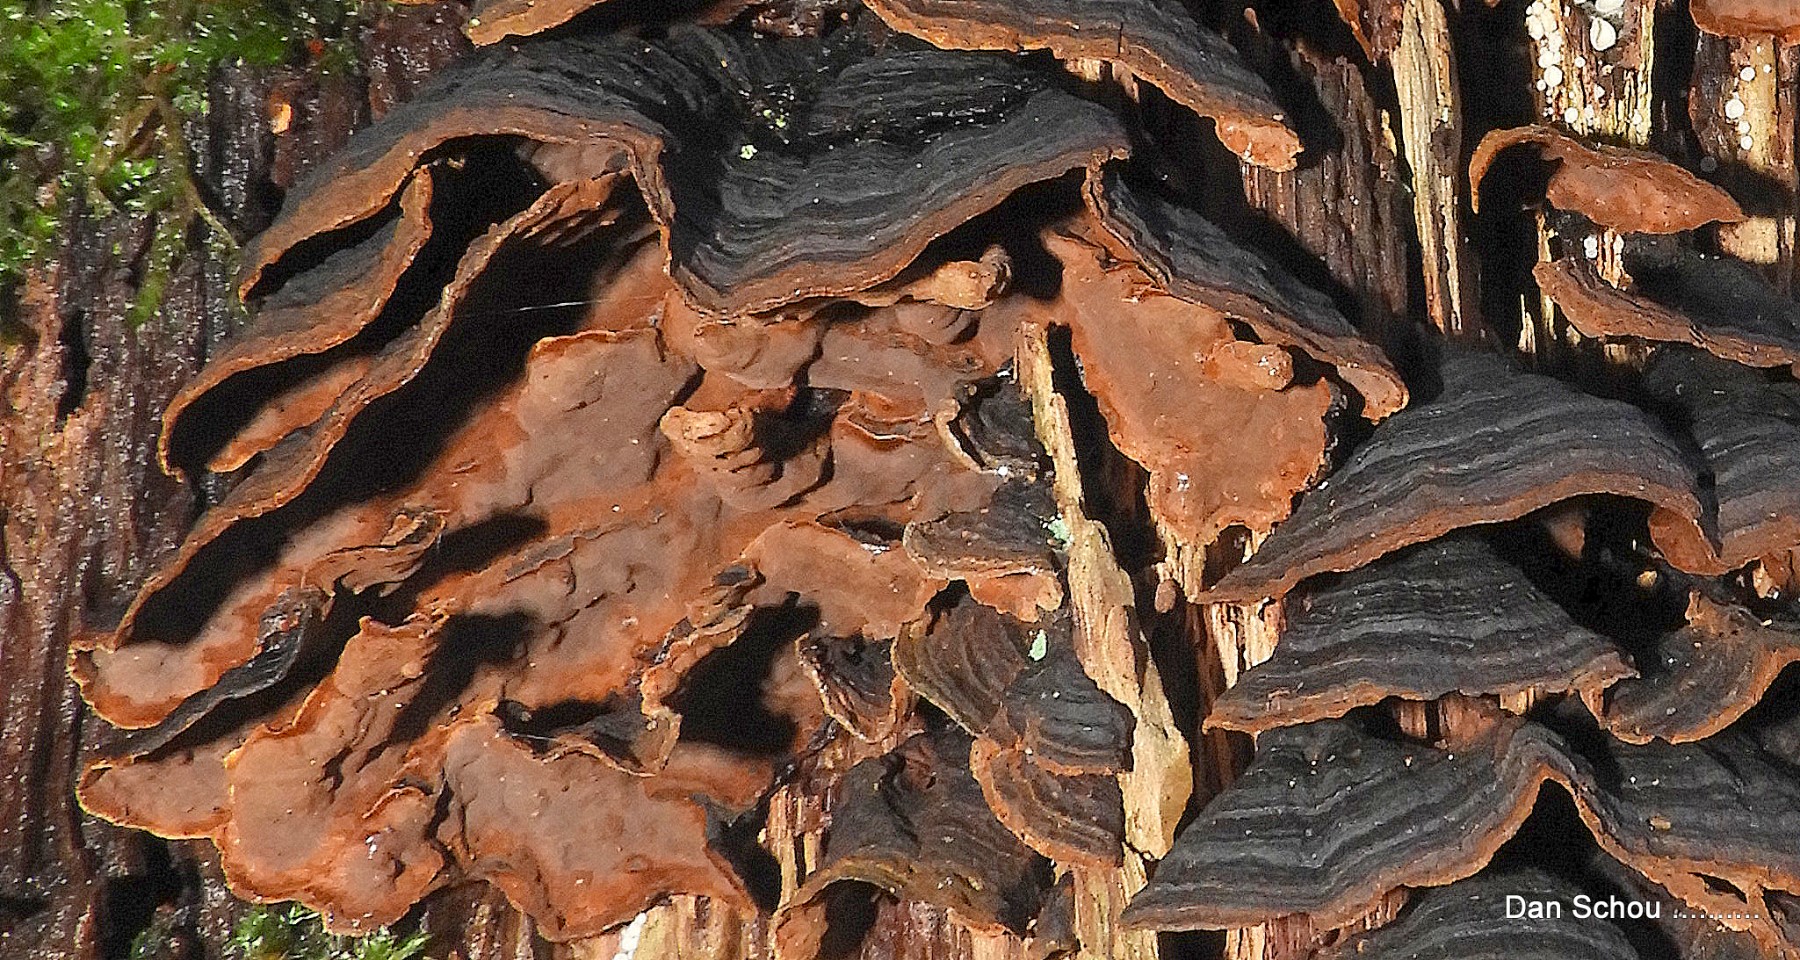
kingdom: Fungi
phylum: Basidiomycota
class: Agaricomycetes
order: Hymenochaetales
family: Hymenochaetaceae
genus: Hymenochaete
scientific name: Hymenochaete rubiginosa
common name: stiv ruslædersvamp
